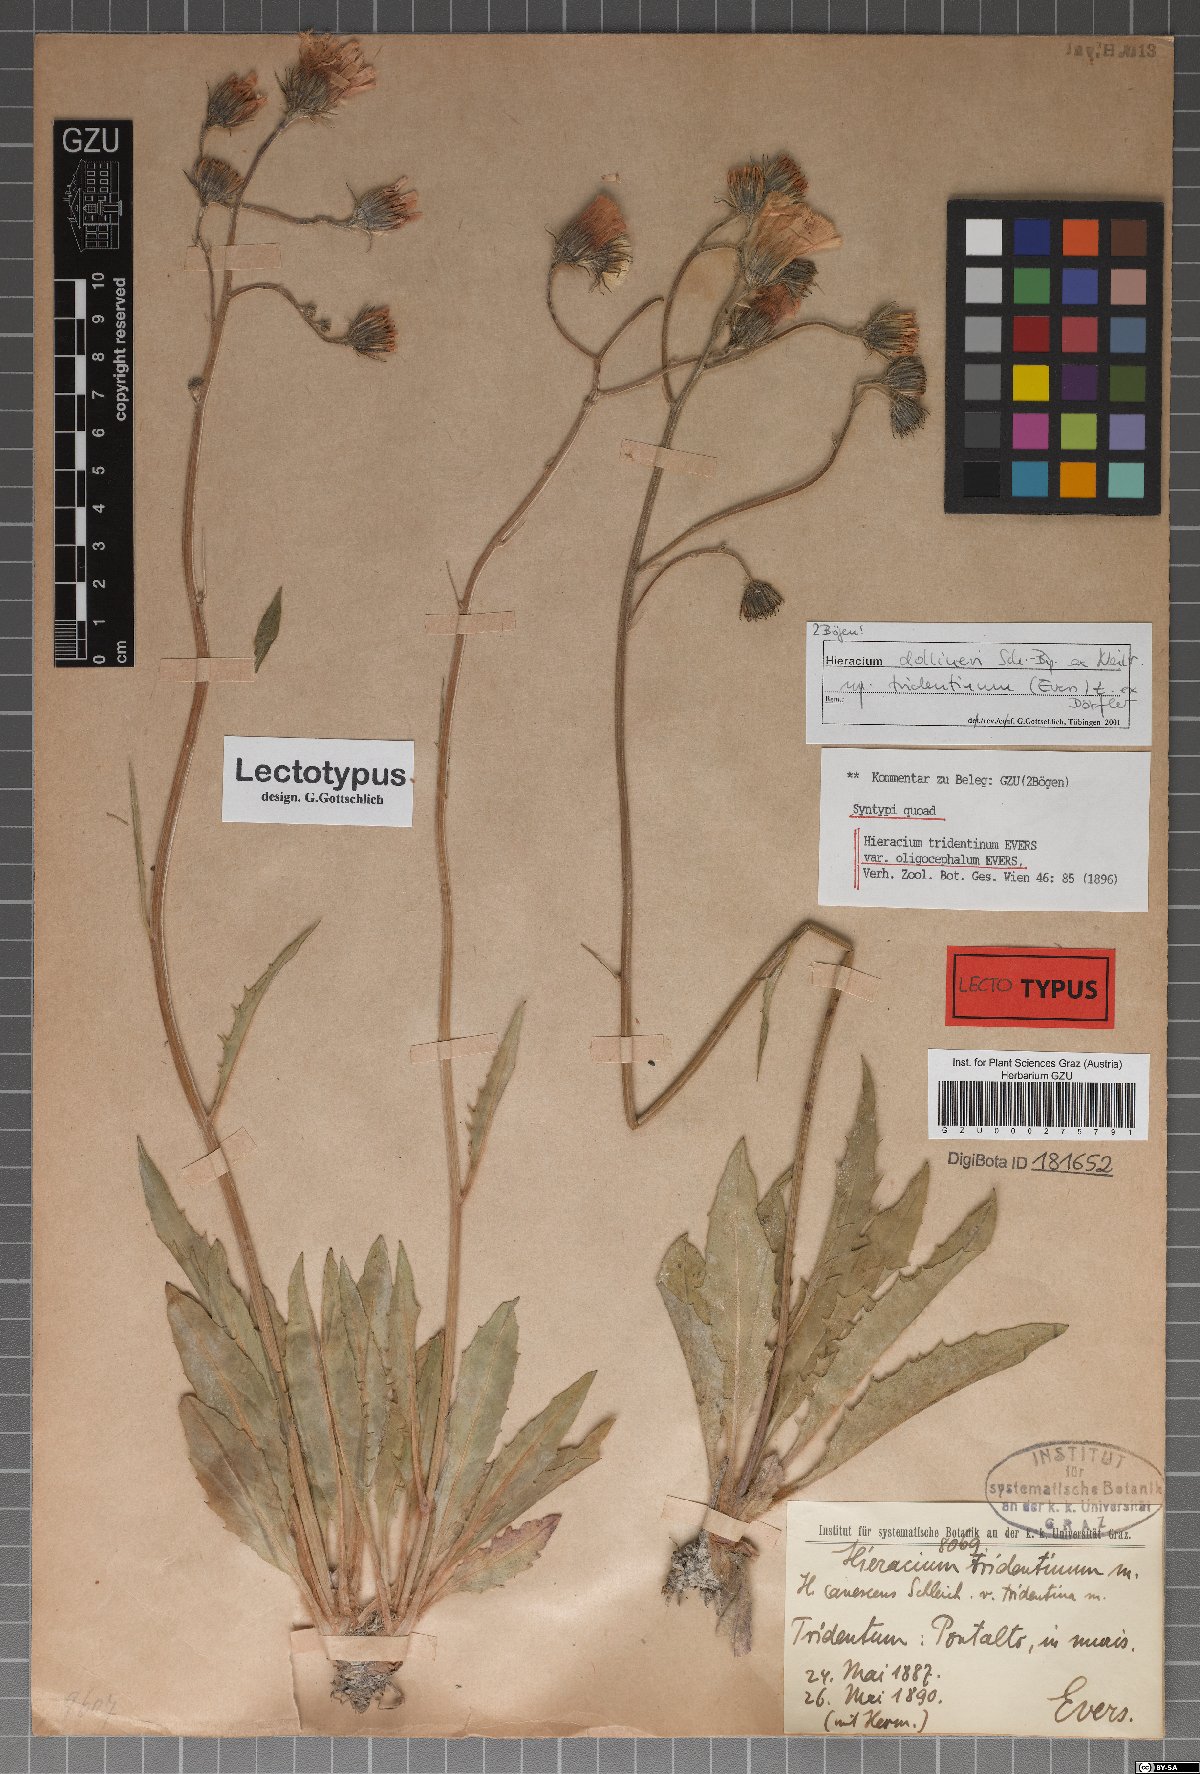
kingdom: Plantae
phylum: Tracheophyta
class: Magnoliopsida
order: Asterales
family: Asteraceae
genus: Hieracium
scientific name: Hieracium tridentinum
